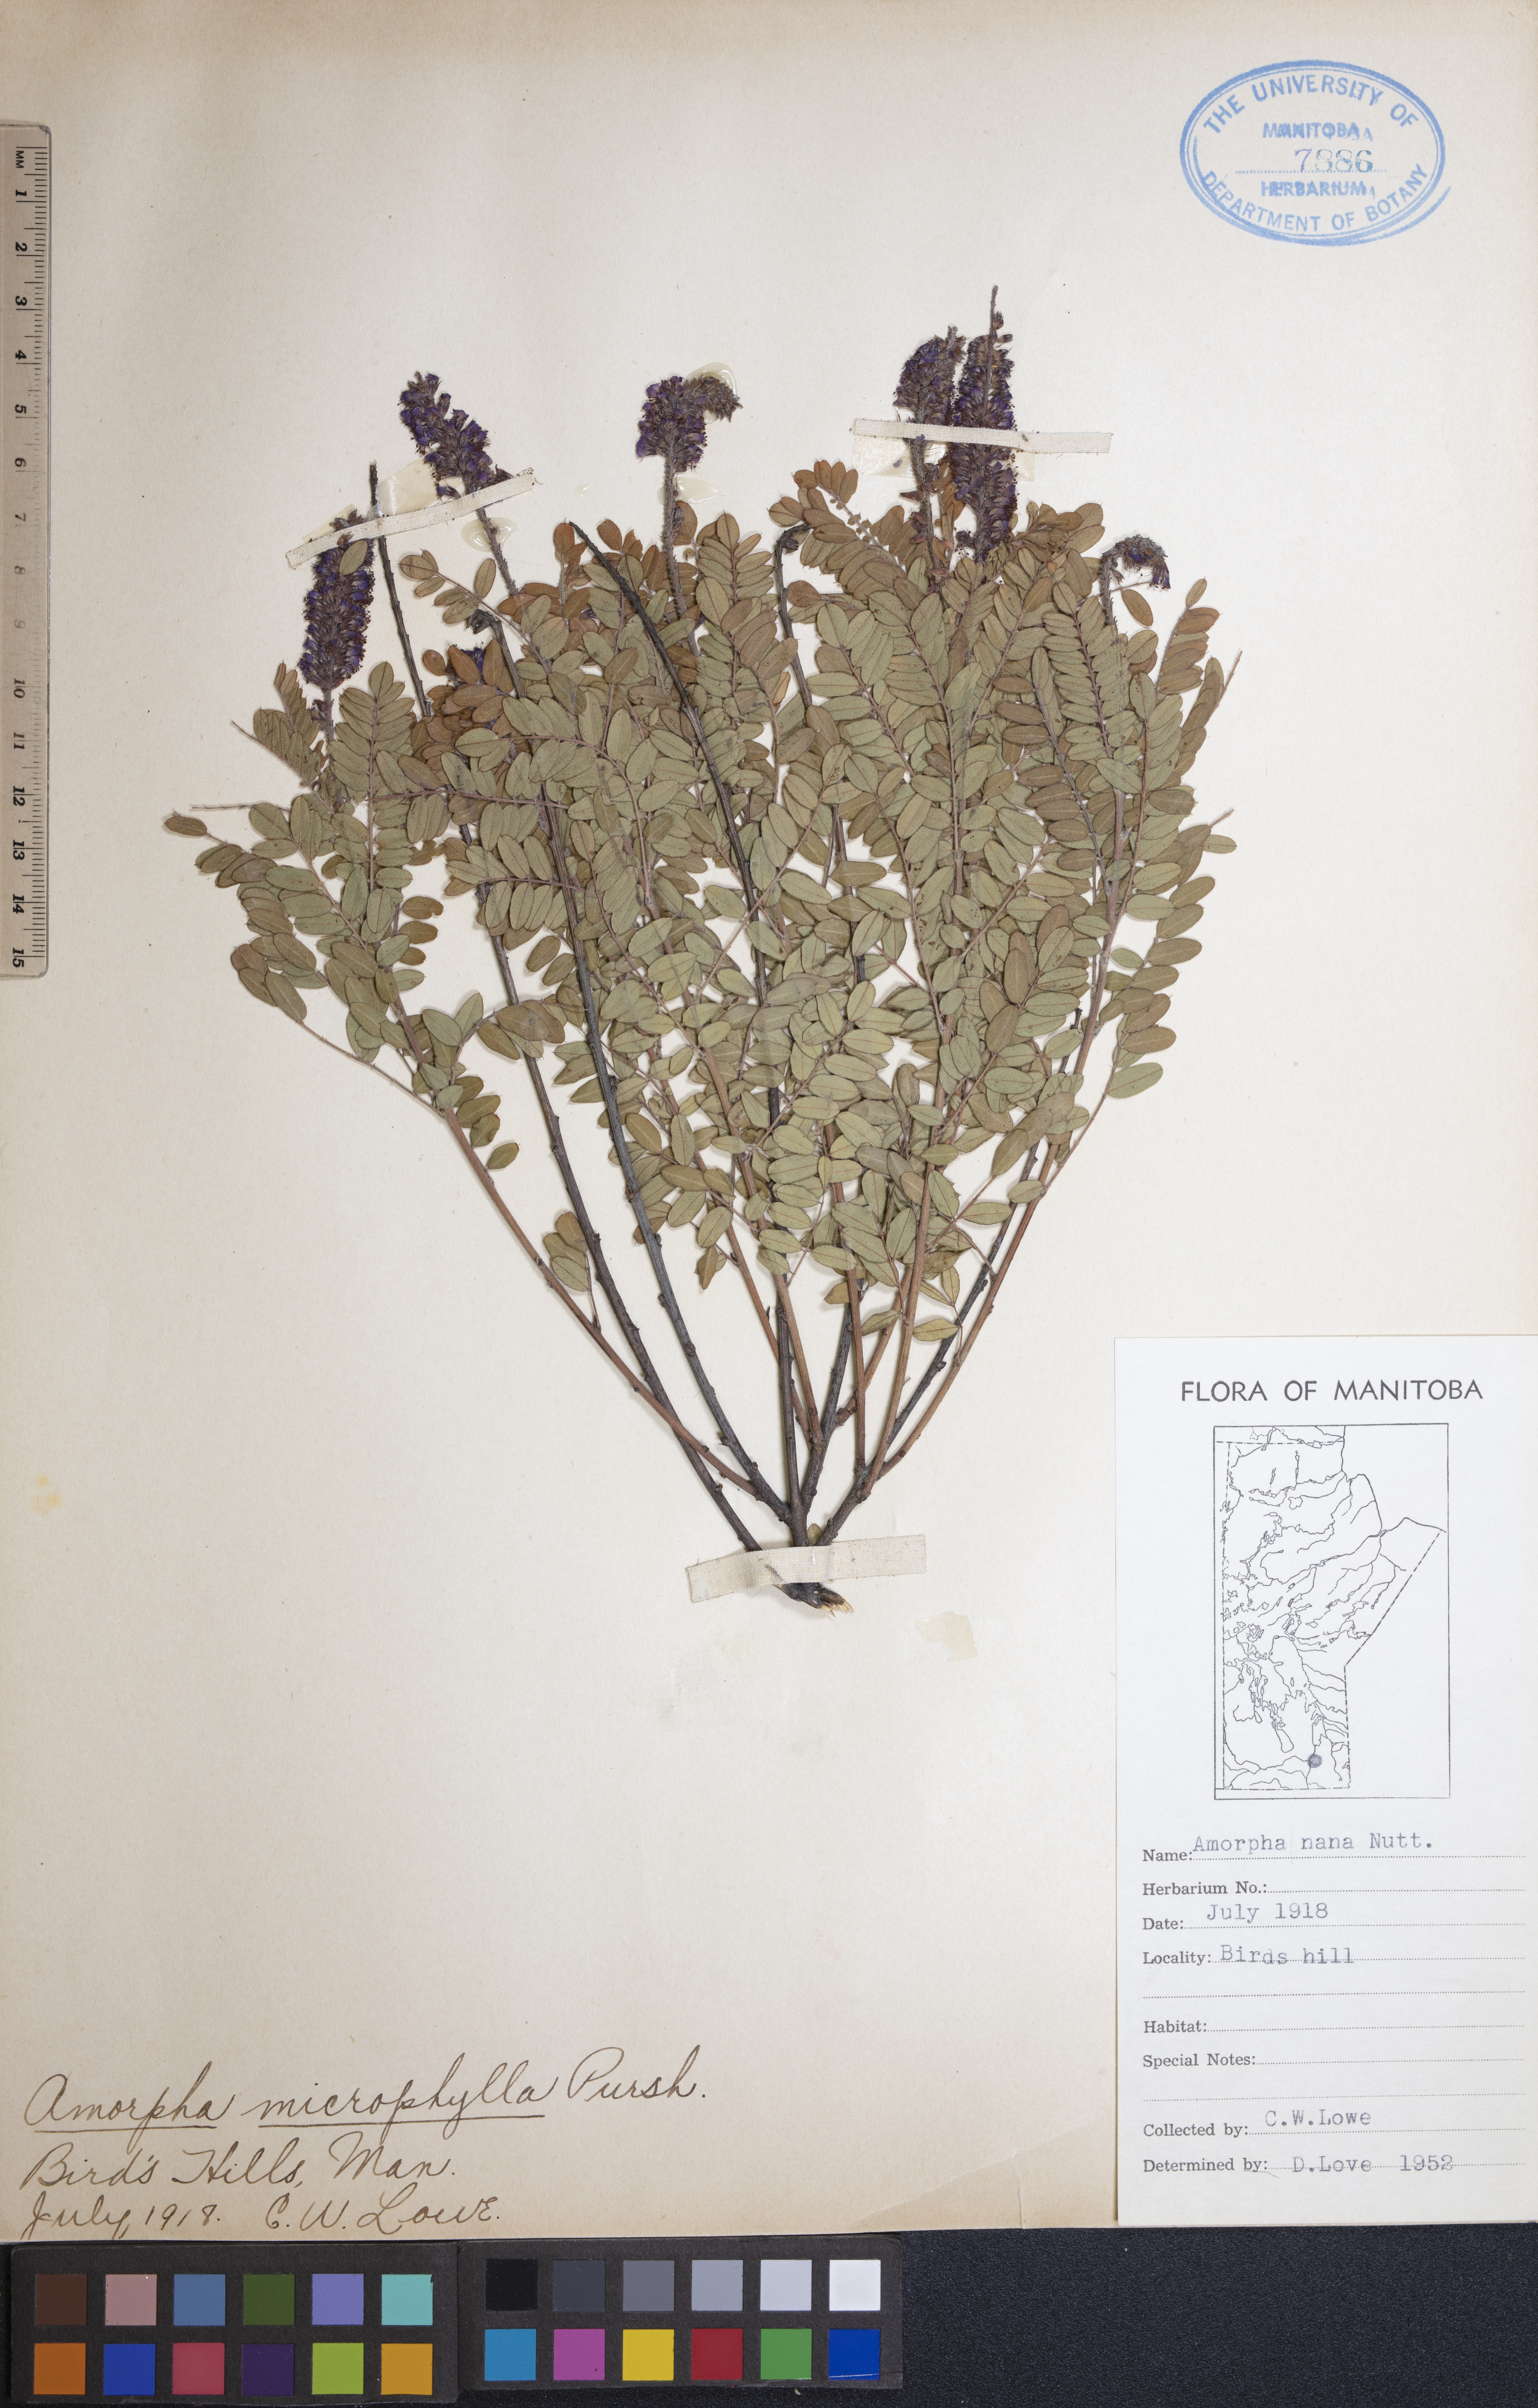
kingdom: Plantae
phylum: Tracheophyta
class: Magnoliopsida
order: Fabales
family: Fabaceae
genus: Amorpha
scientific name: Amorpha nana
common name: Fragrant false indigo
